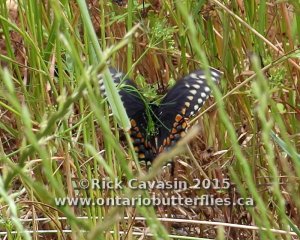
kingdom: Animalia
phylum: Arthropoda
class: Insecta
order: Lepidoptera
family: Papilionidae
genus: Papilio
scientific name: Papilio polyxenes
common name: Black Swallowtail
